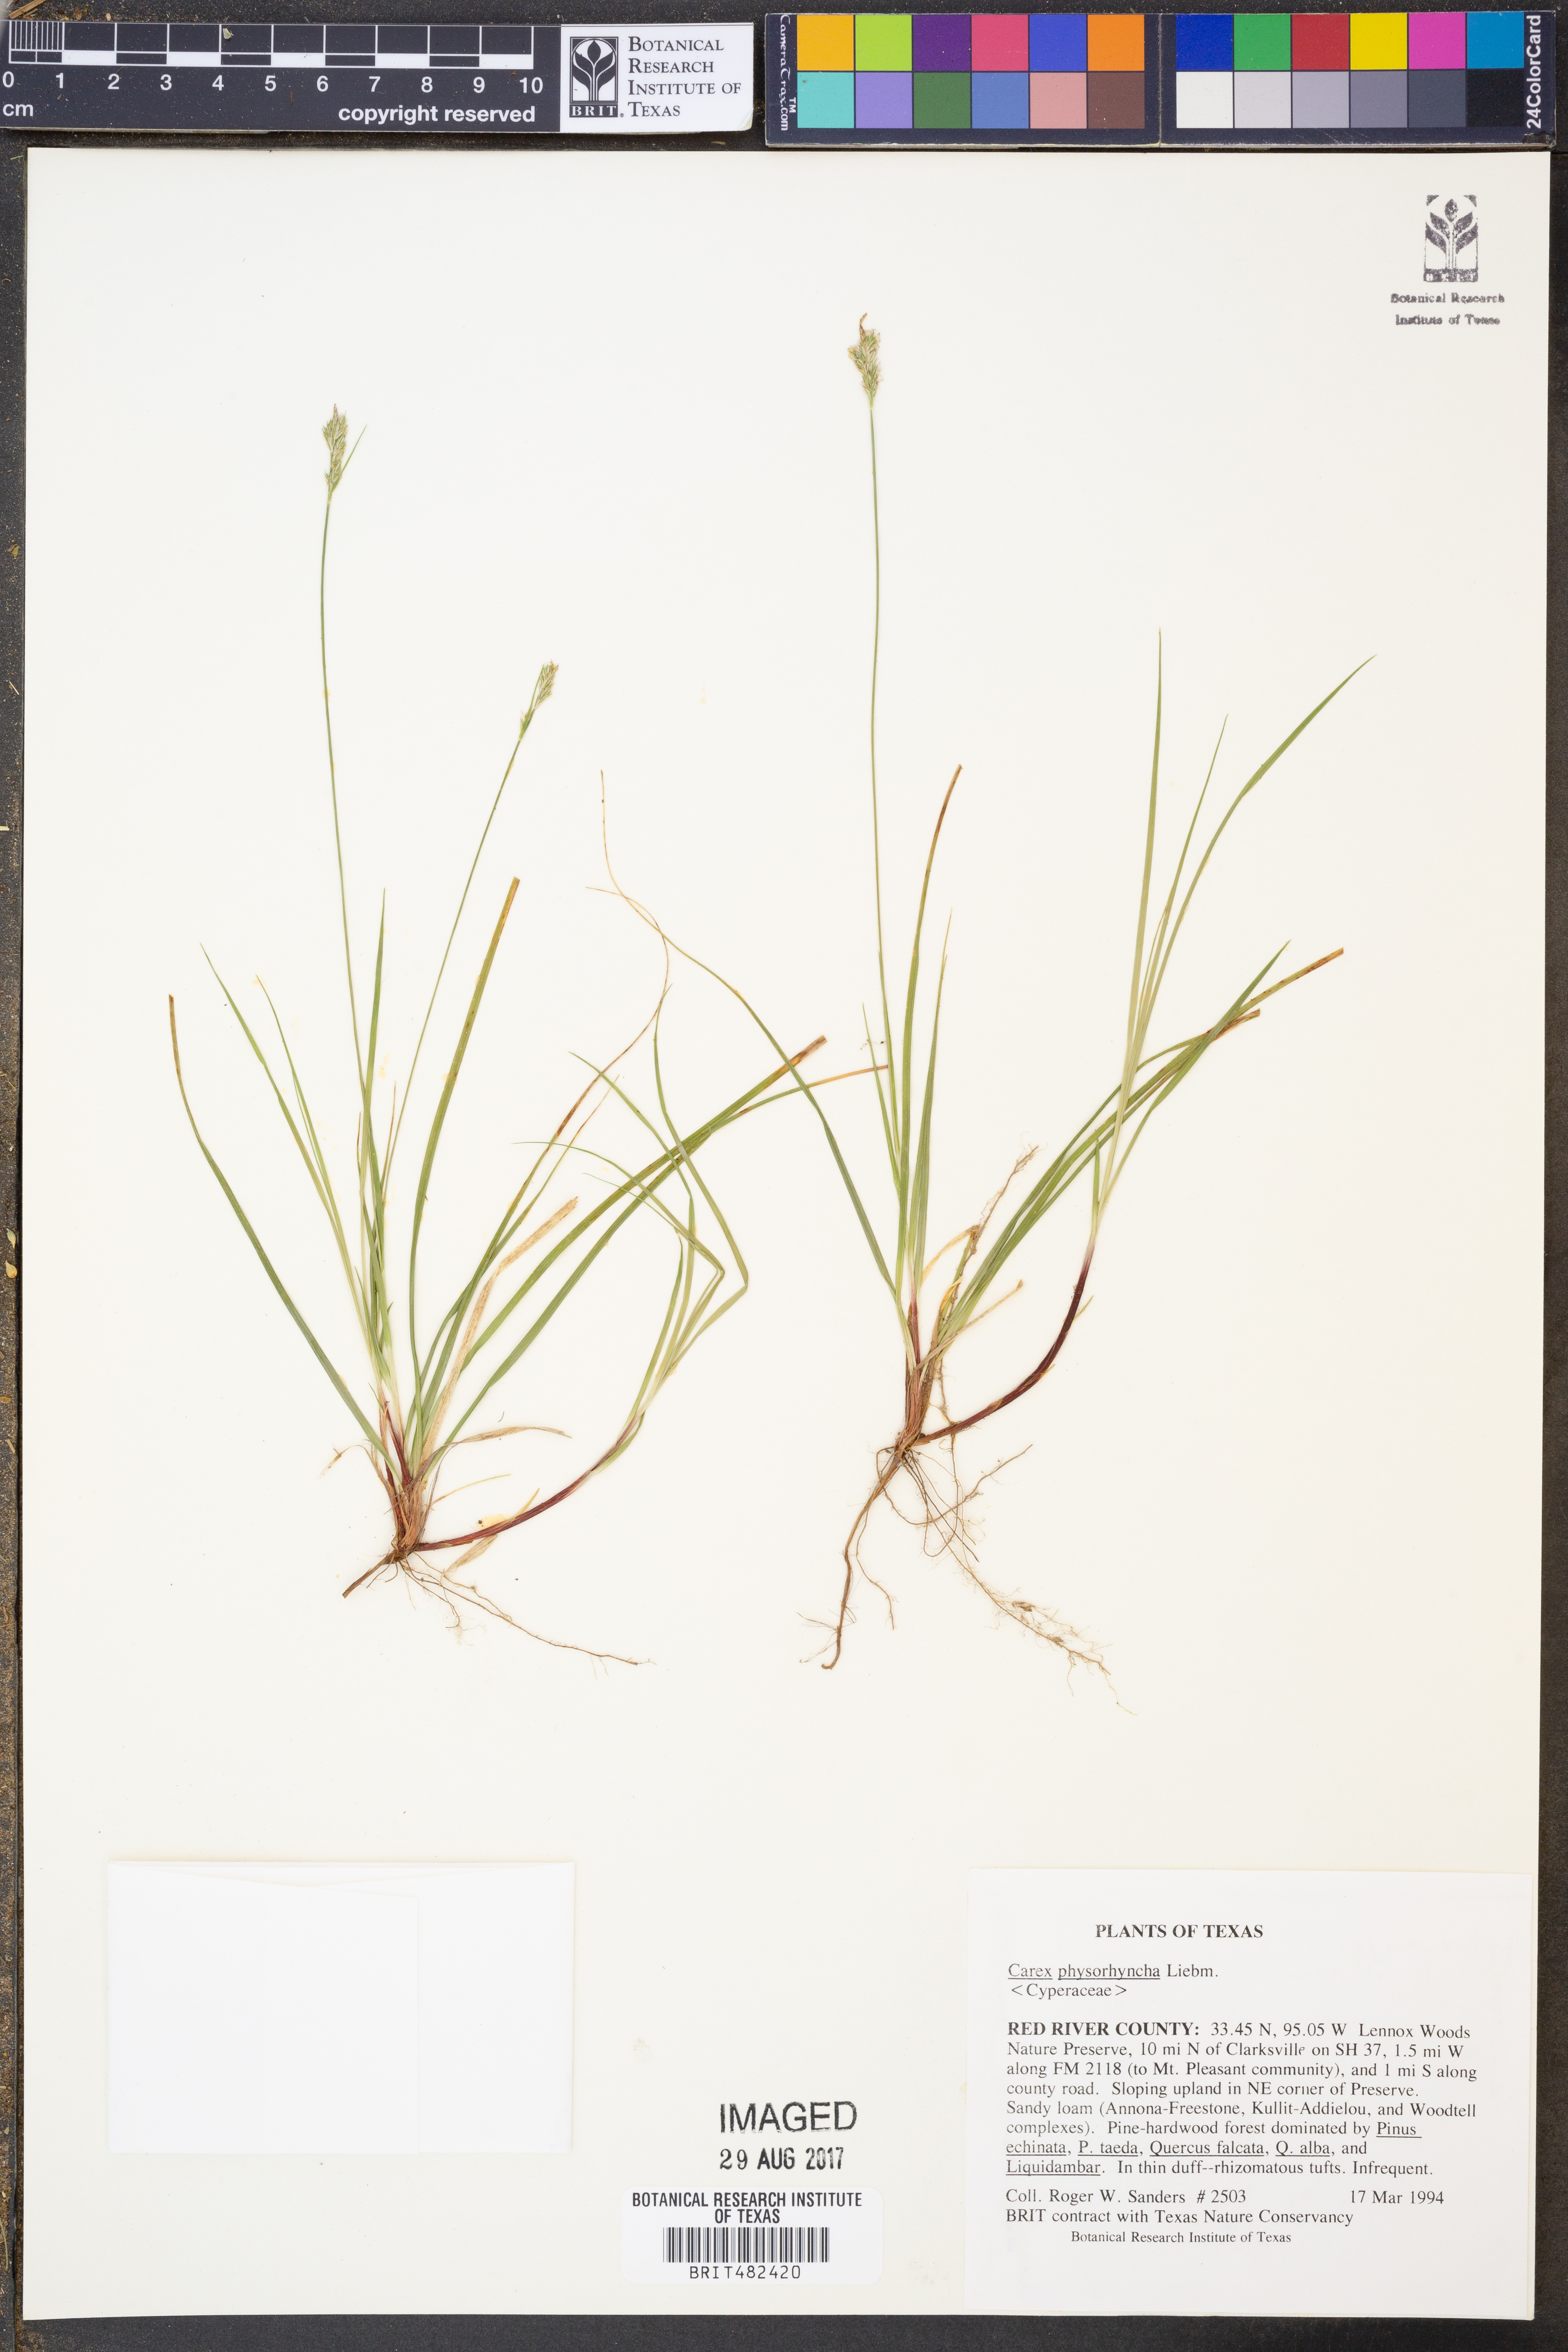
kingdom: Plantae
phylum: Tracheophyta
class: Liliopsida
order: Poales
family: Cyperaceae
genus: Carex
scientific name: Carex albicans
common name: Bellow-beaked sedge
